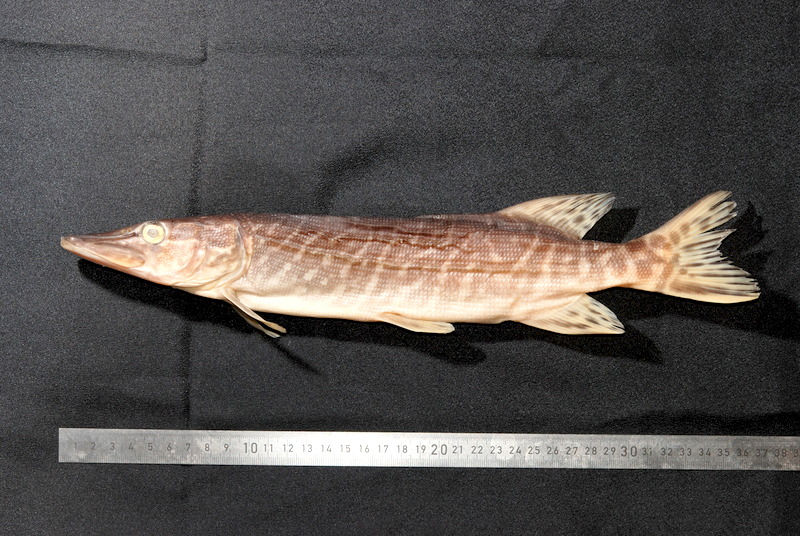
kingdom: Animalia
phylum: Chordata
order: Esociformes
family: Esocidae
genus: Esox
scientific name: Esox lucius
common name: Northern pike
